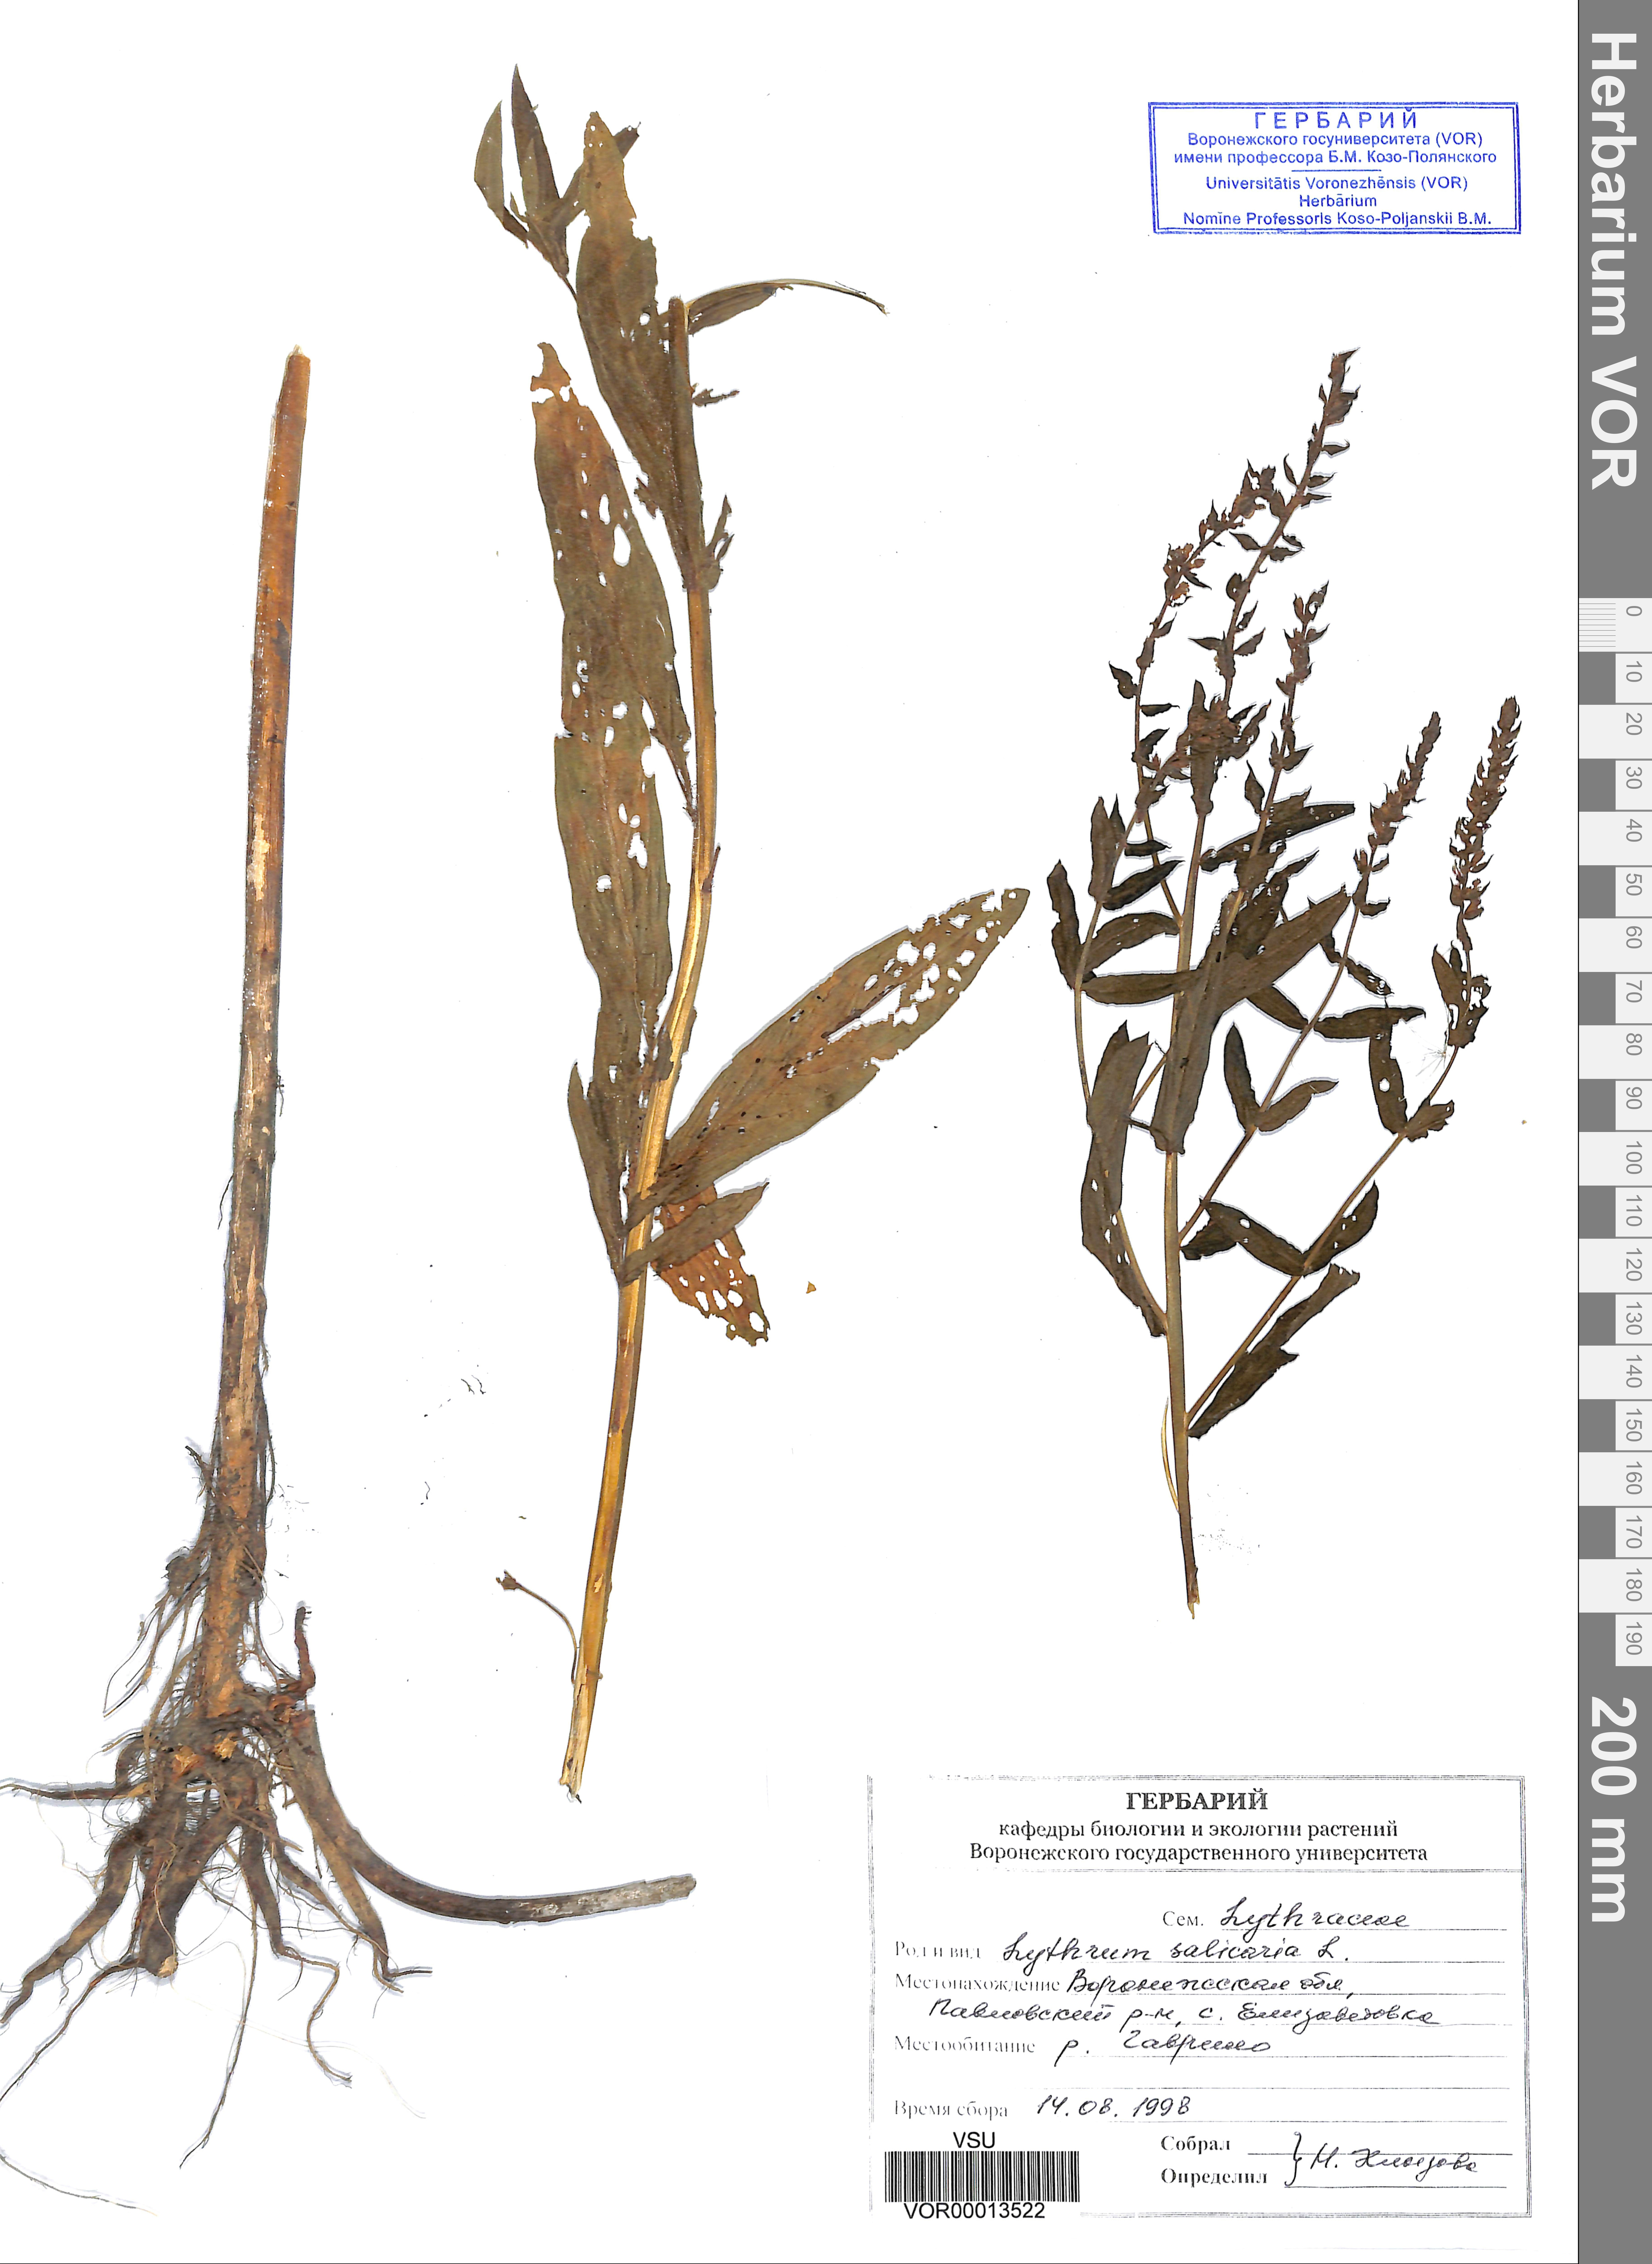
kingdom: Plantae
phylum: Tracheophyta
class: Magnoliopsida
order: Myrtales
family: Lythraceae
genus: Lythrum
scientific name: Lythrum salicaria
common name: Purple loosestrife
